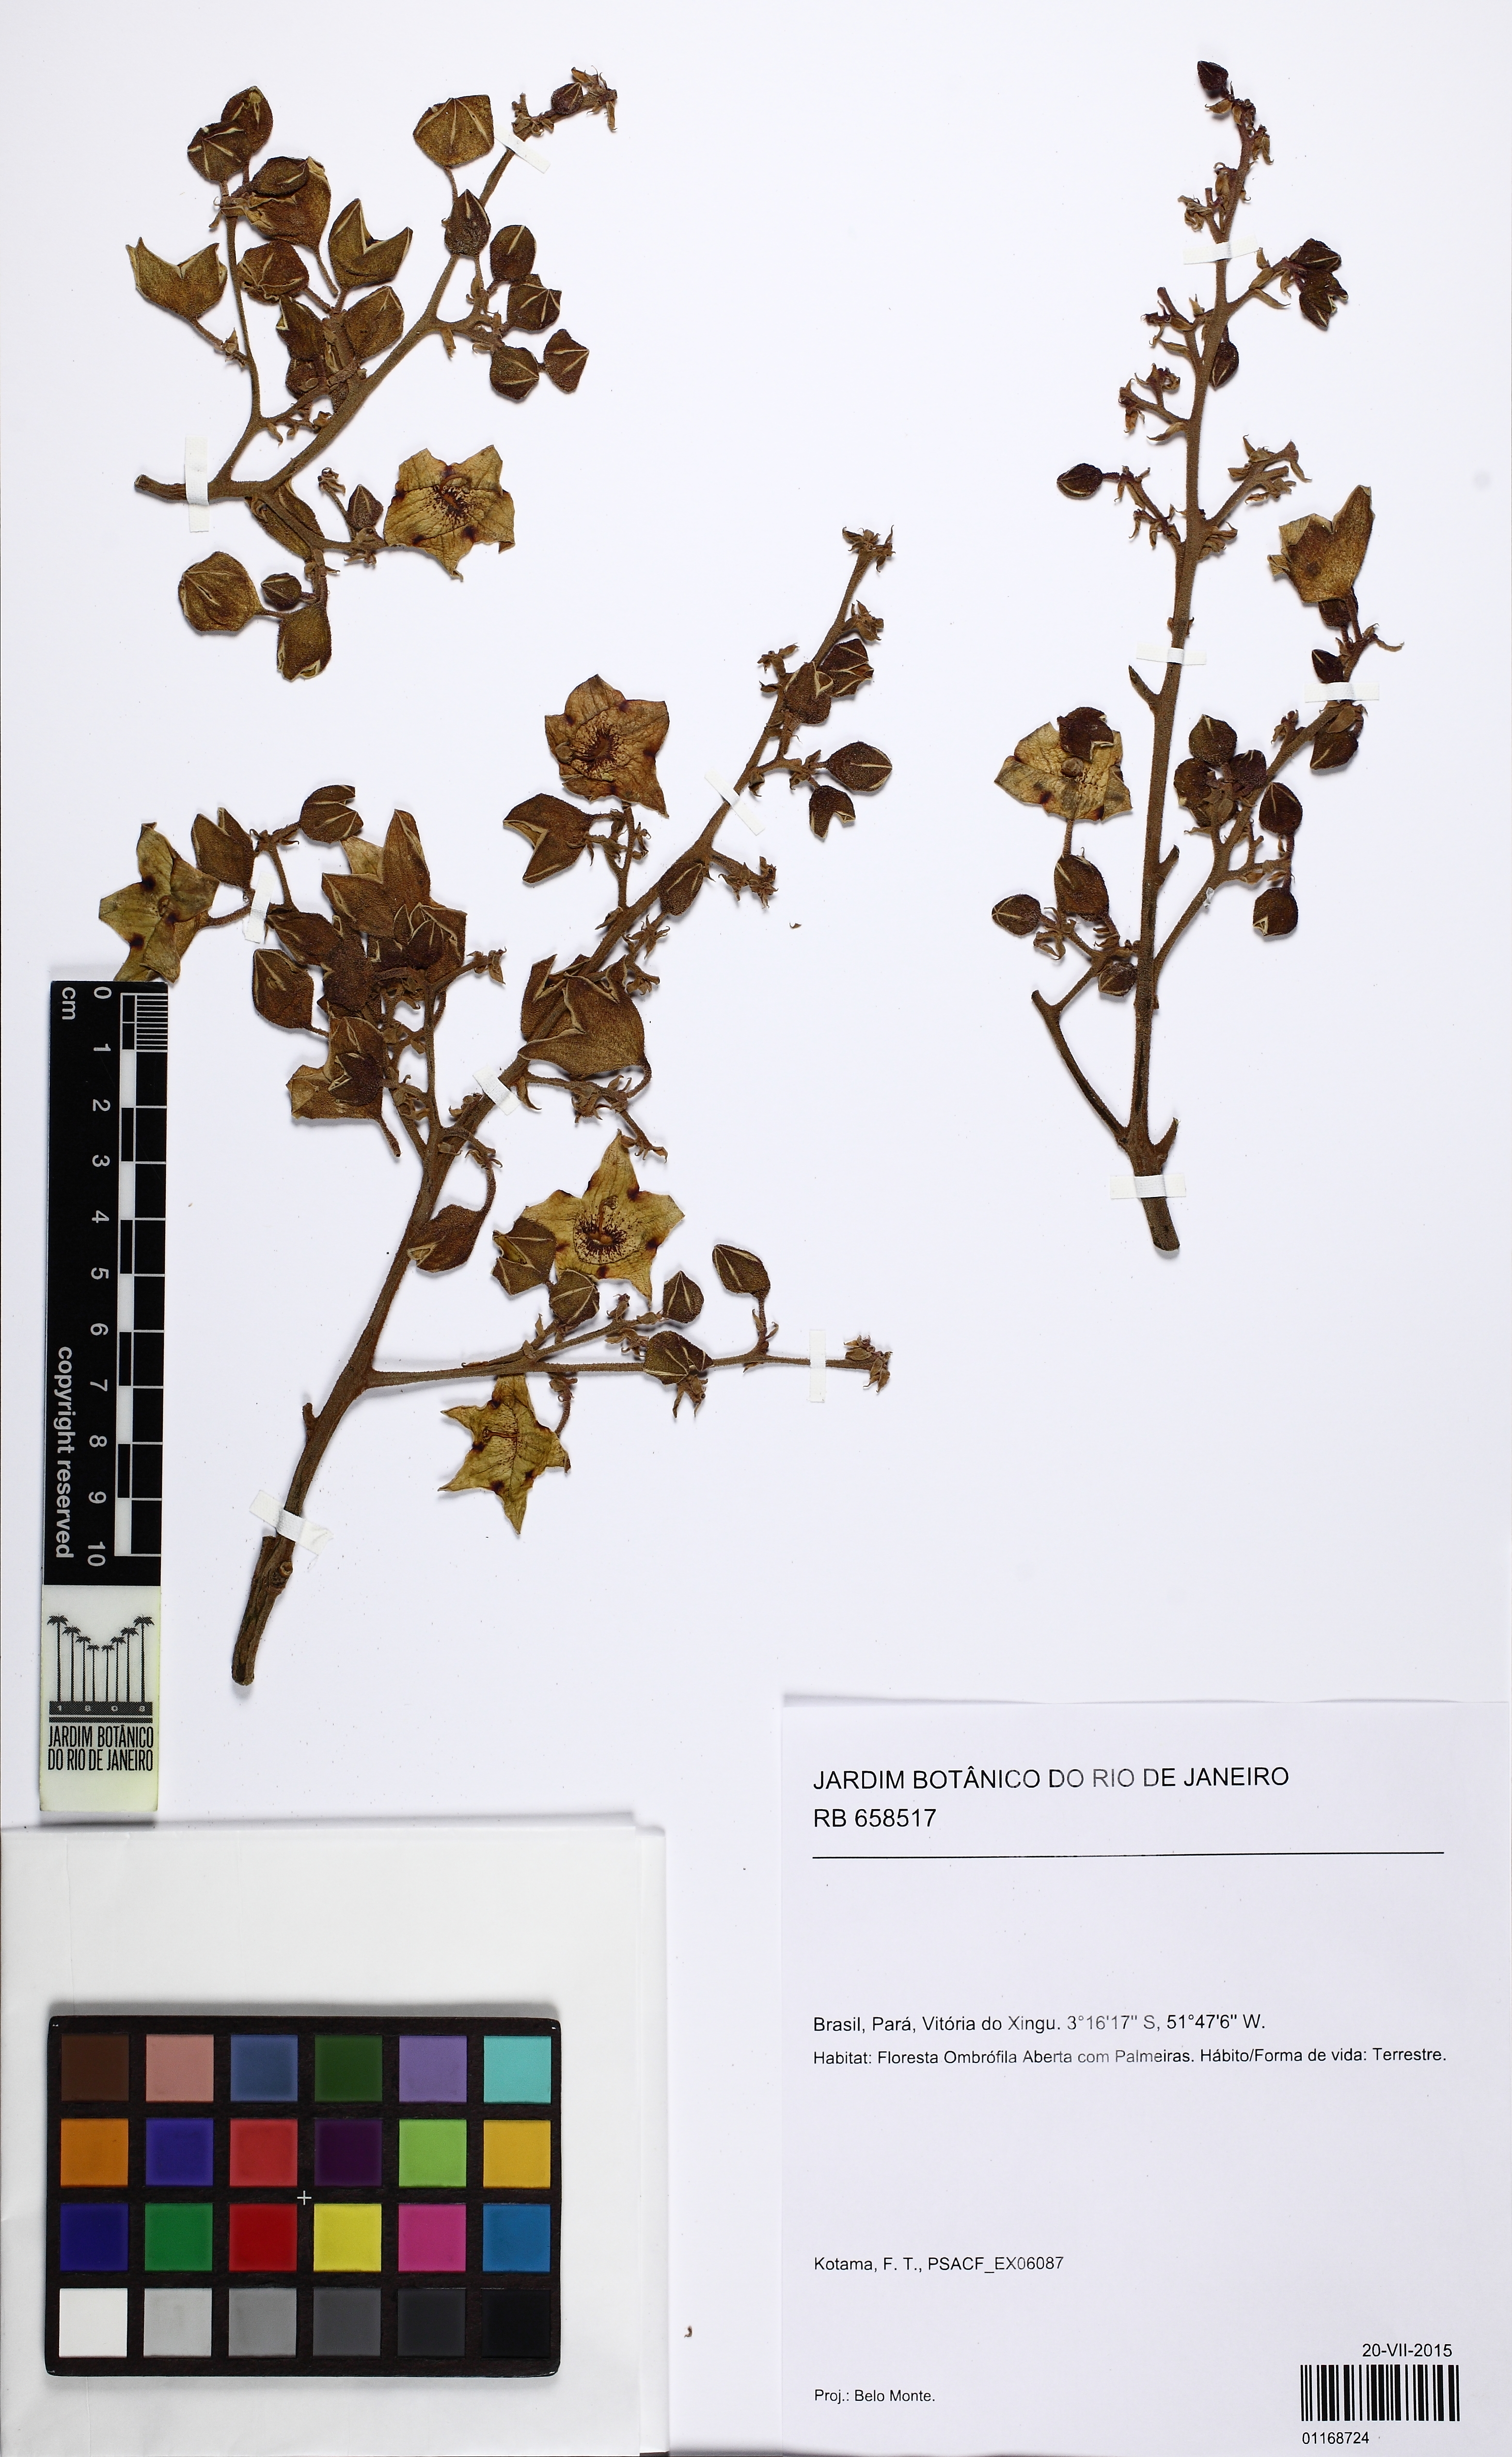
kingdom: Plantae
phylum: Tracheophyta
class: Magnoliopsida
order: Cucurbitales
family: Cucurbitaceae
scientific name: Cucurbitaceae
